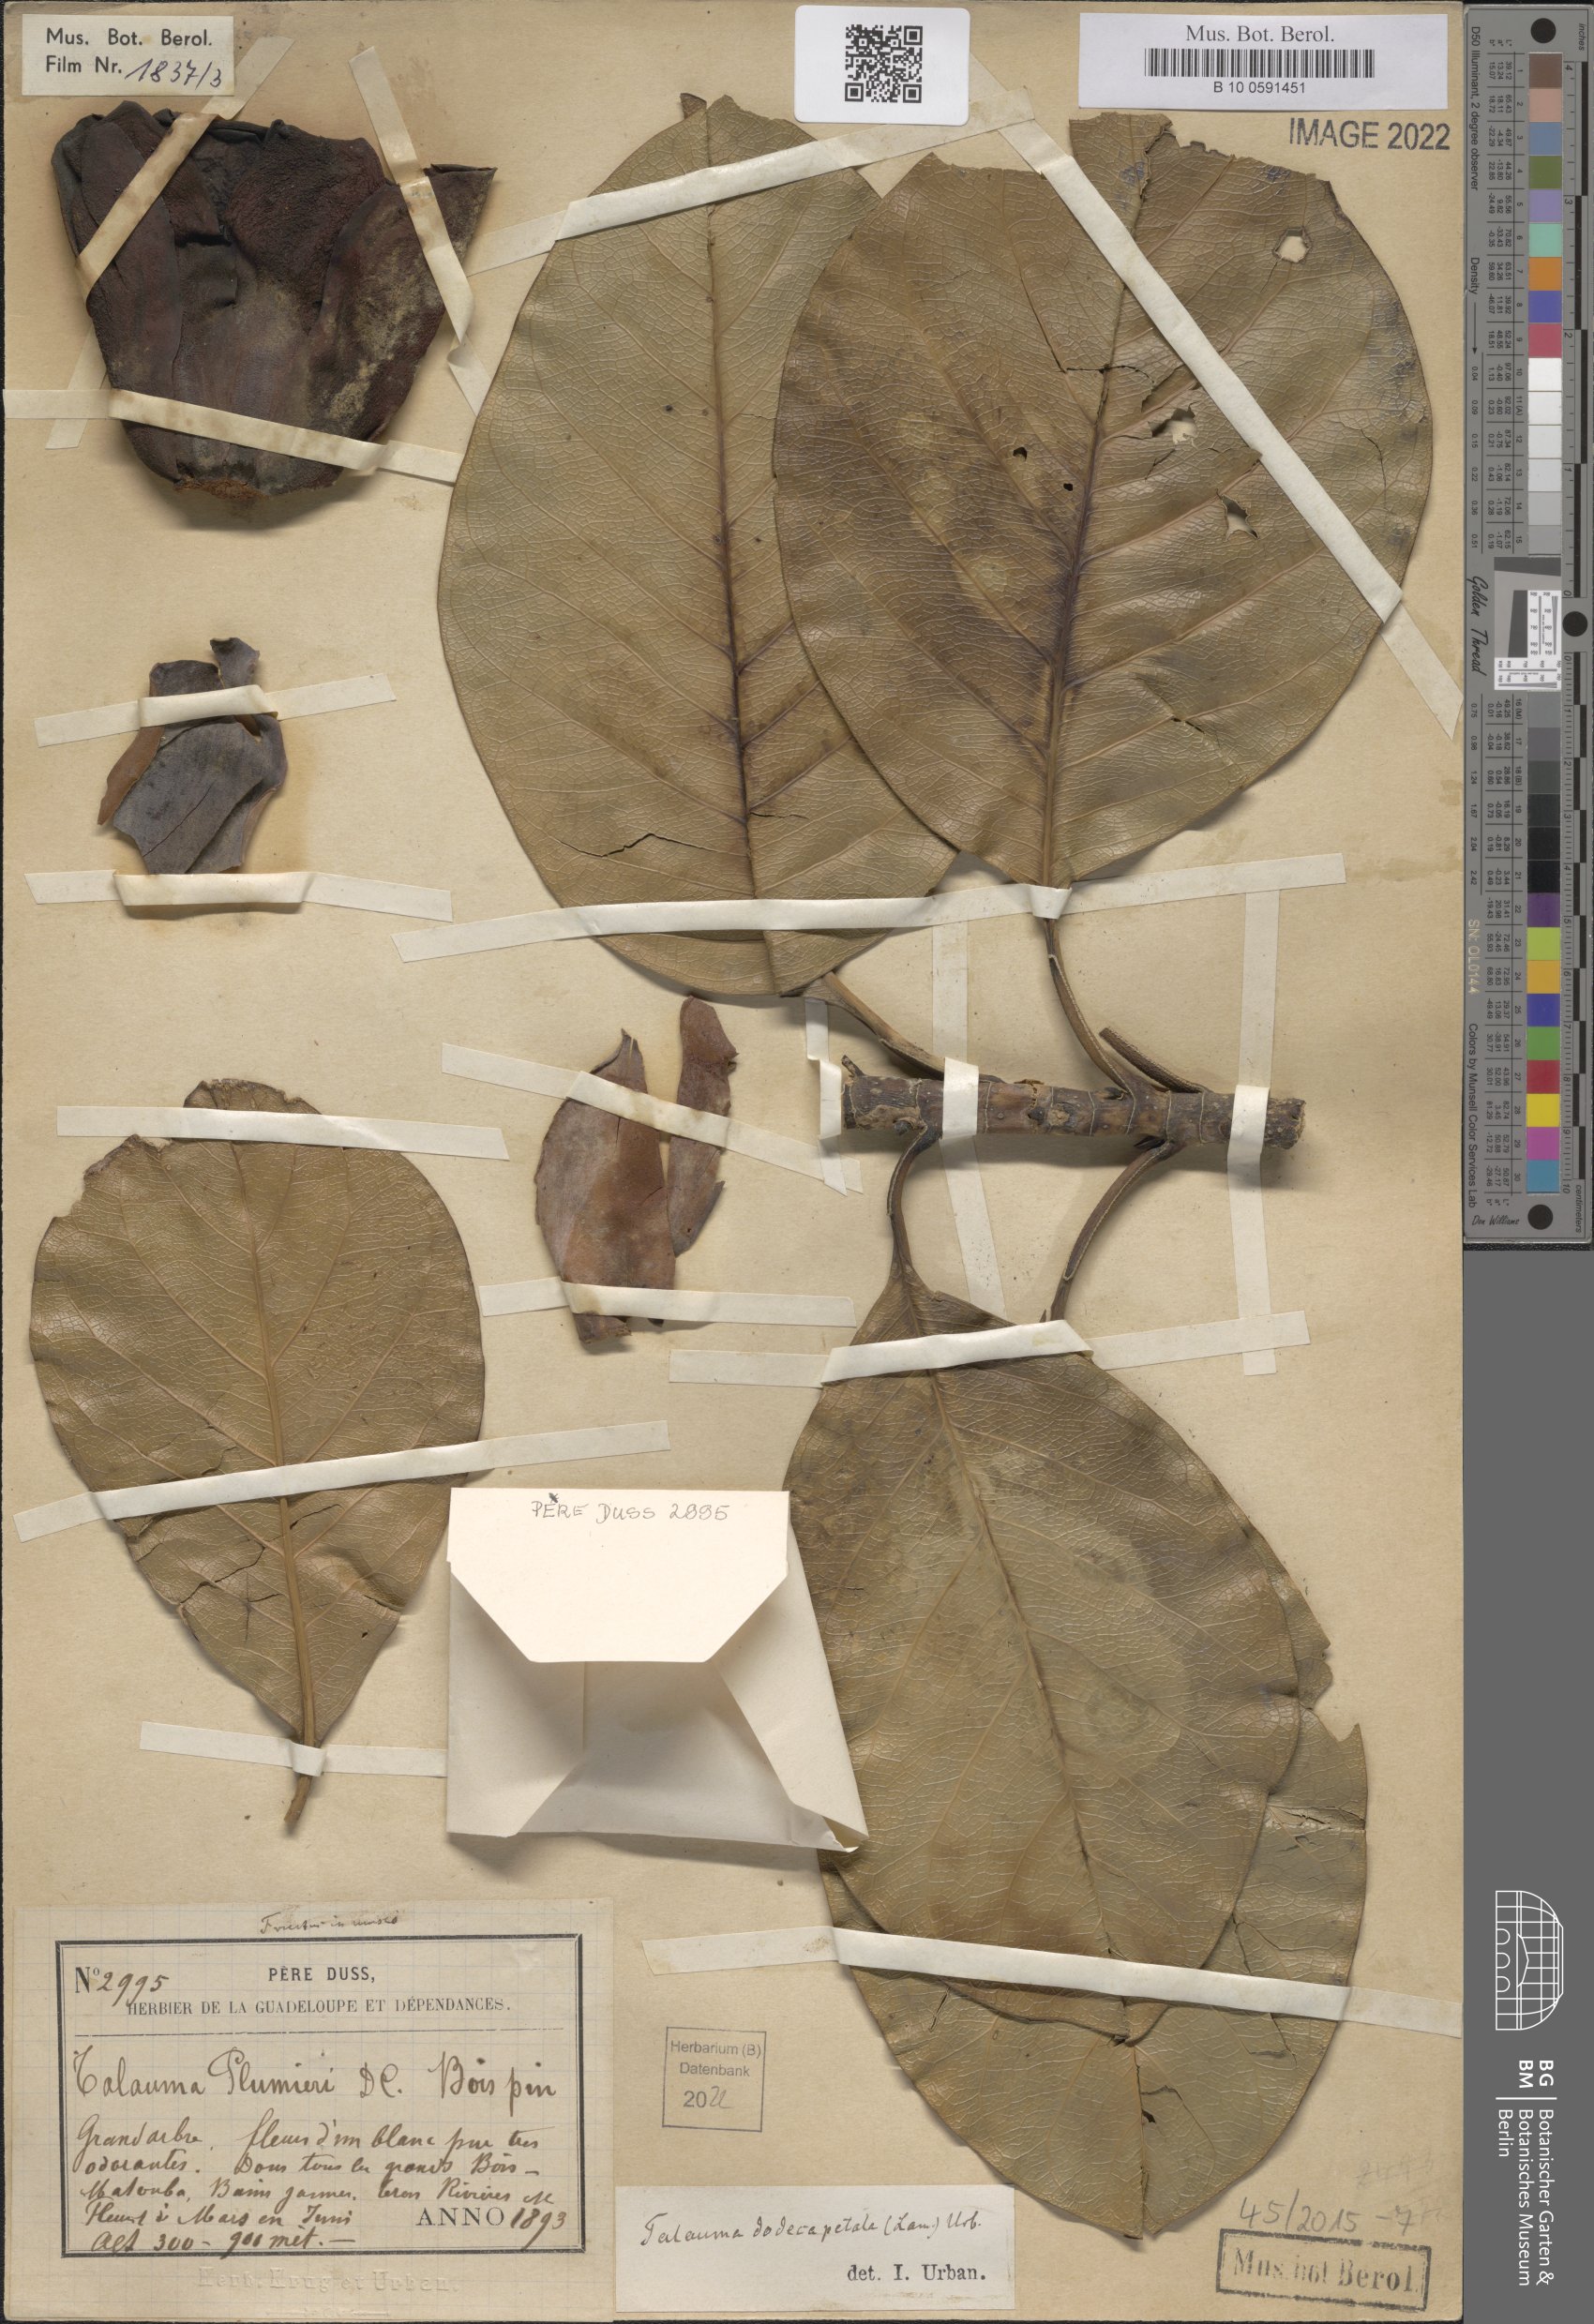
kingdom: Plantae
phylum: Tracheophyta
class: Magnoliopsida
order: Magnoliales
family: Magnoliaceae
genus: Magnolia
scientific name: Magnolia dodecapetala
